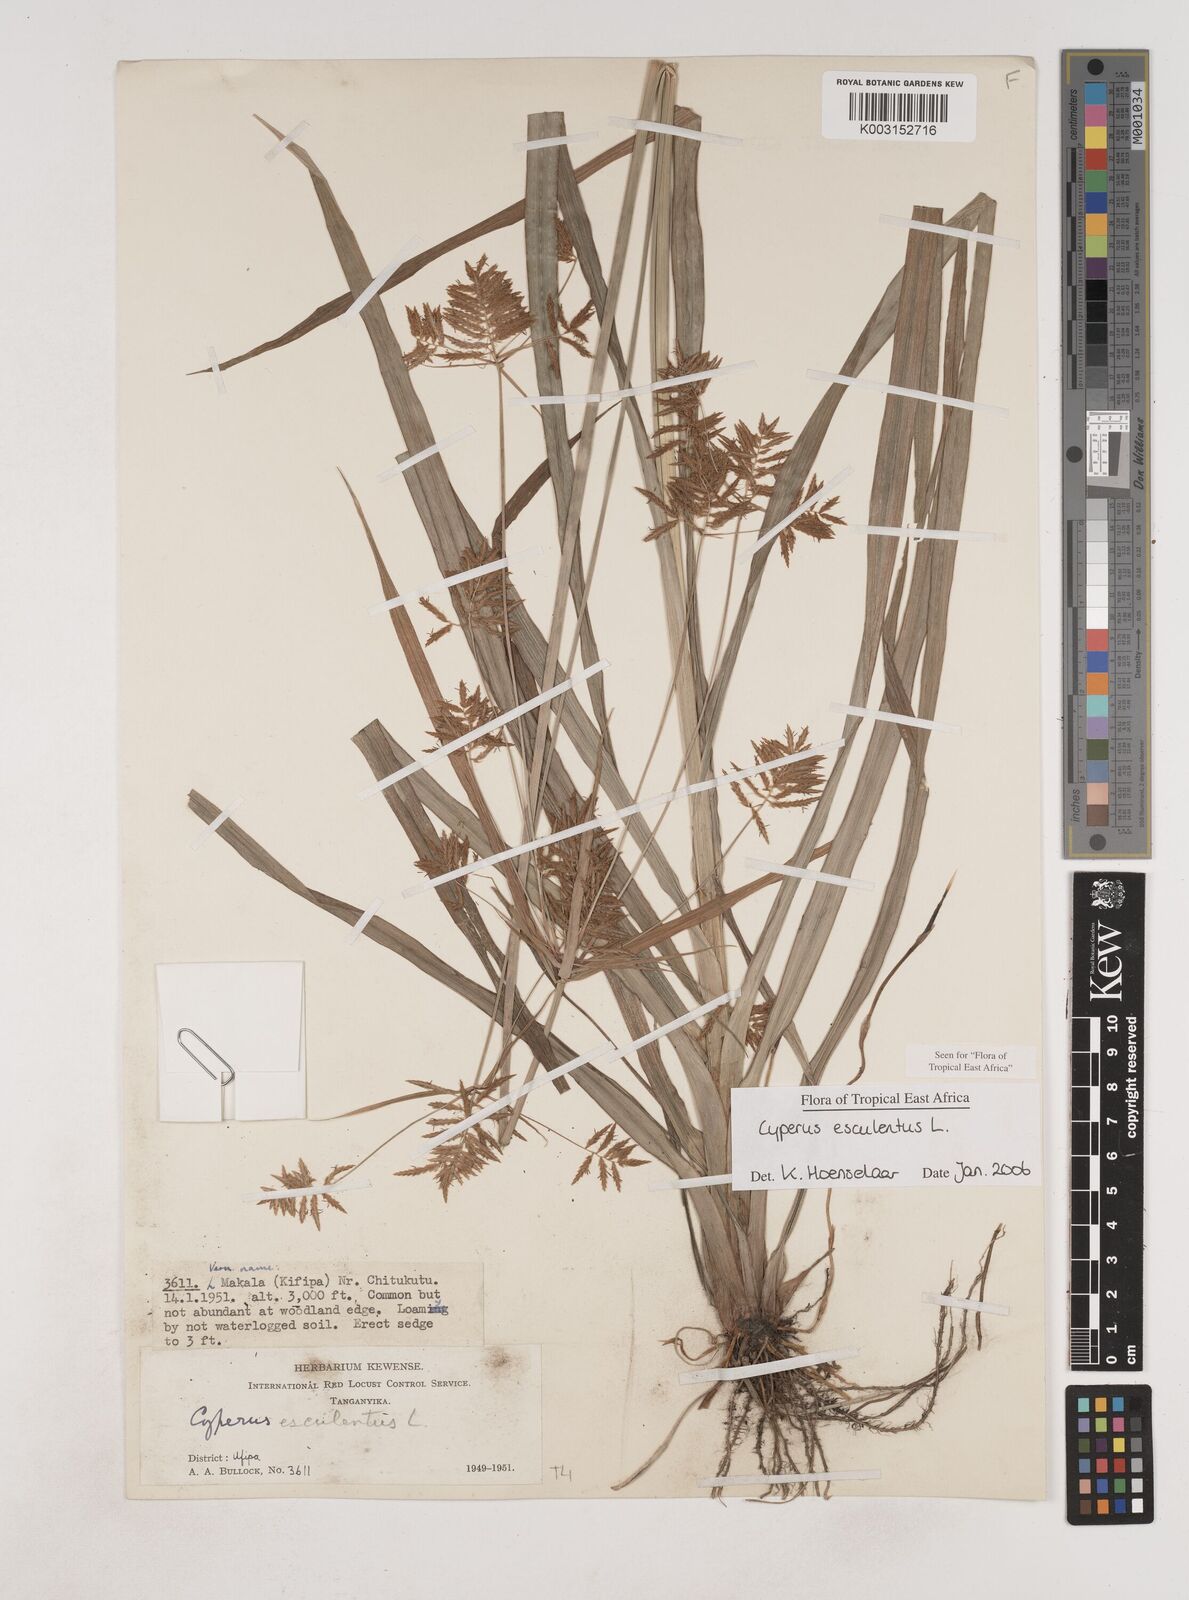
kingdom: Plantae
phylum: Tracheophyta
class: Liliopsida
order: Poales
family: Cyperaceae
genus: Cyperus
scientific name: Cyperus esculentus
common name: Yellow nutsedge
